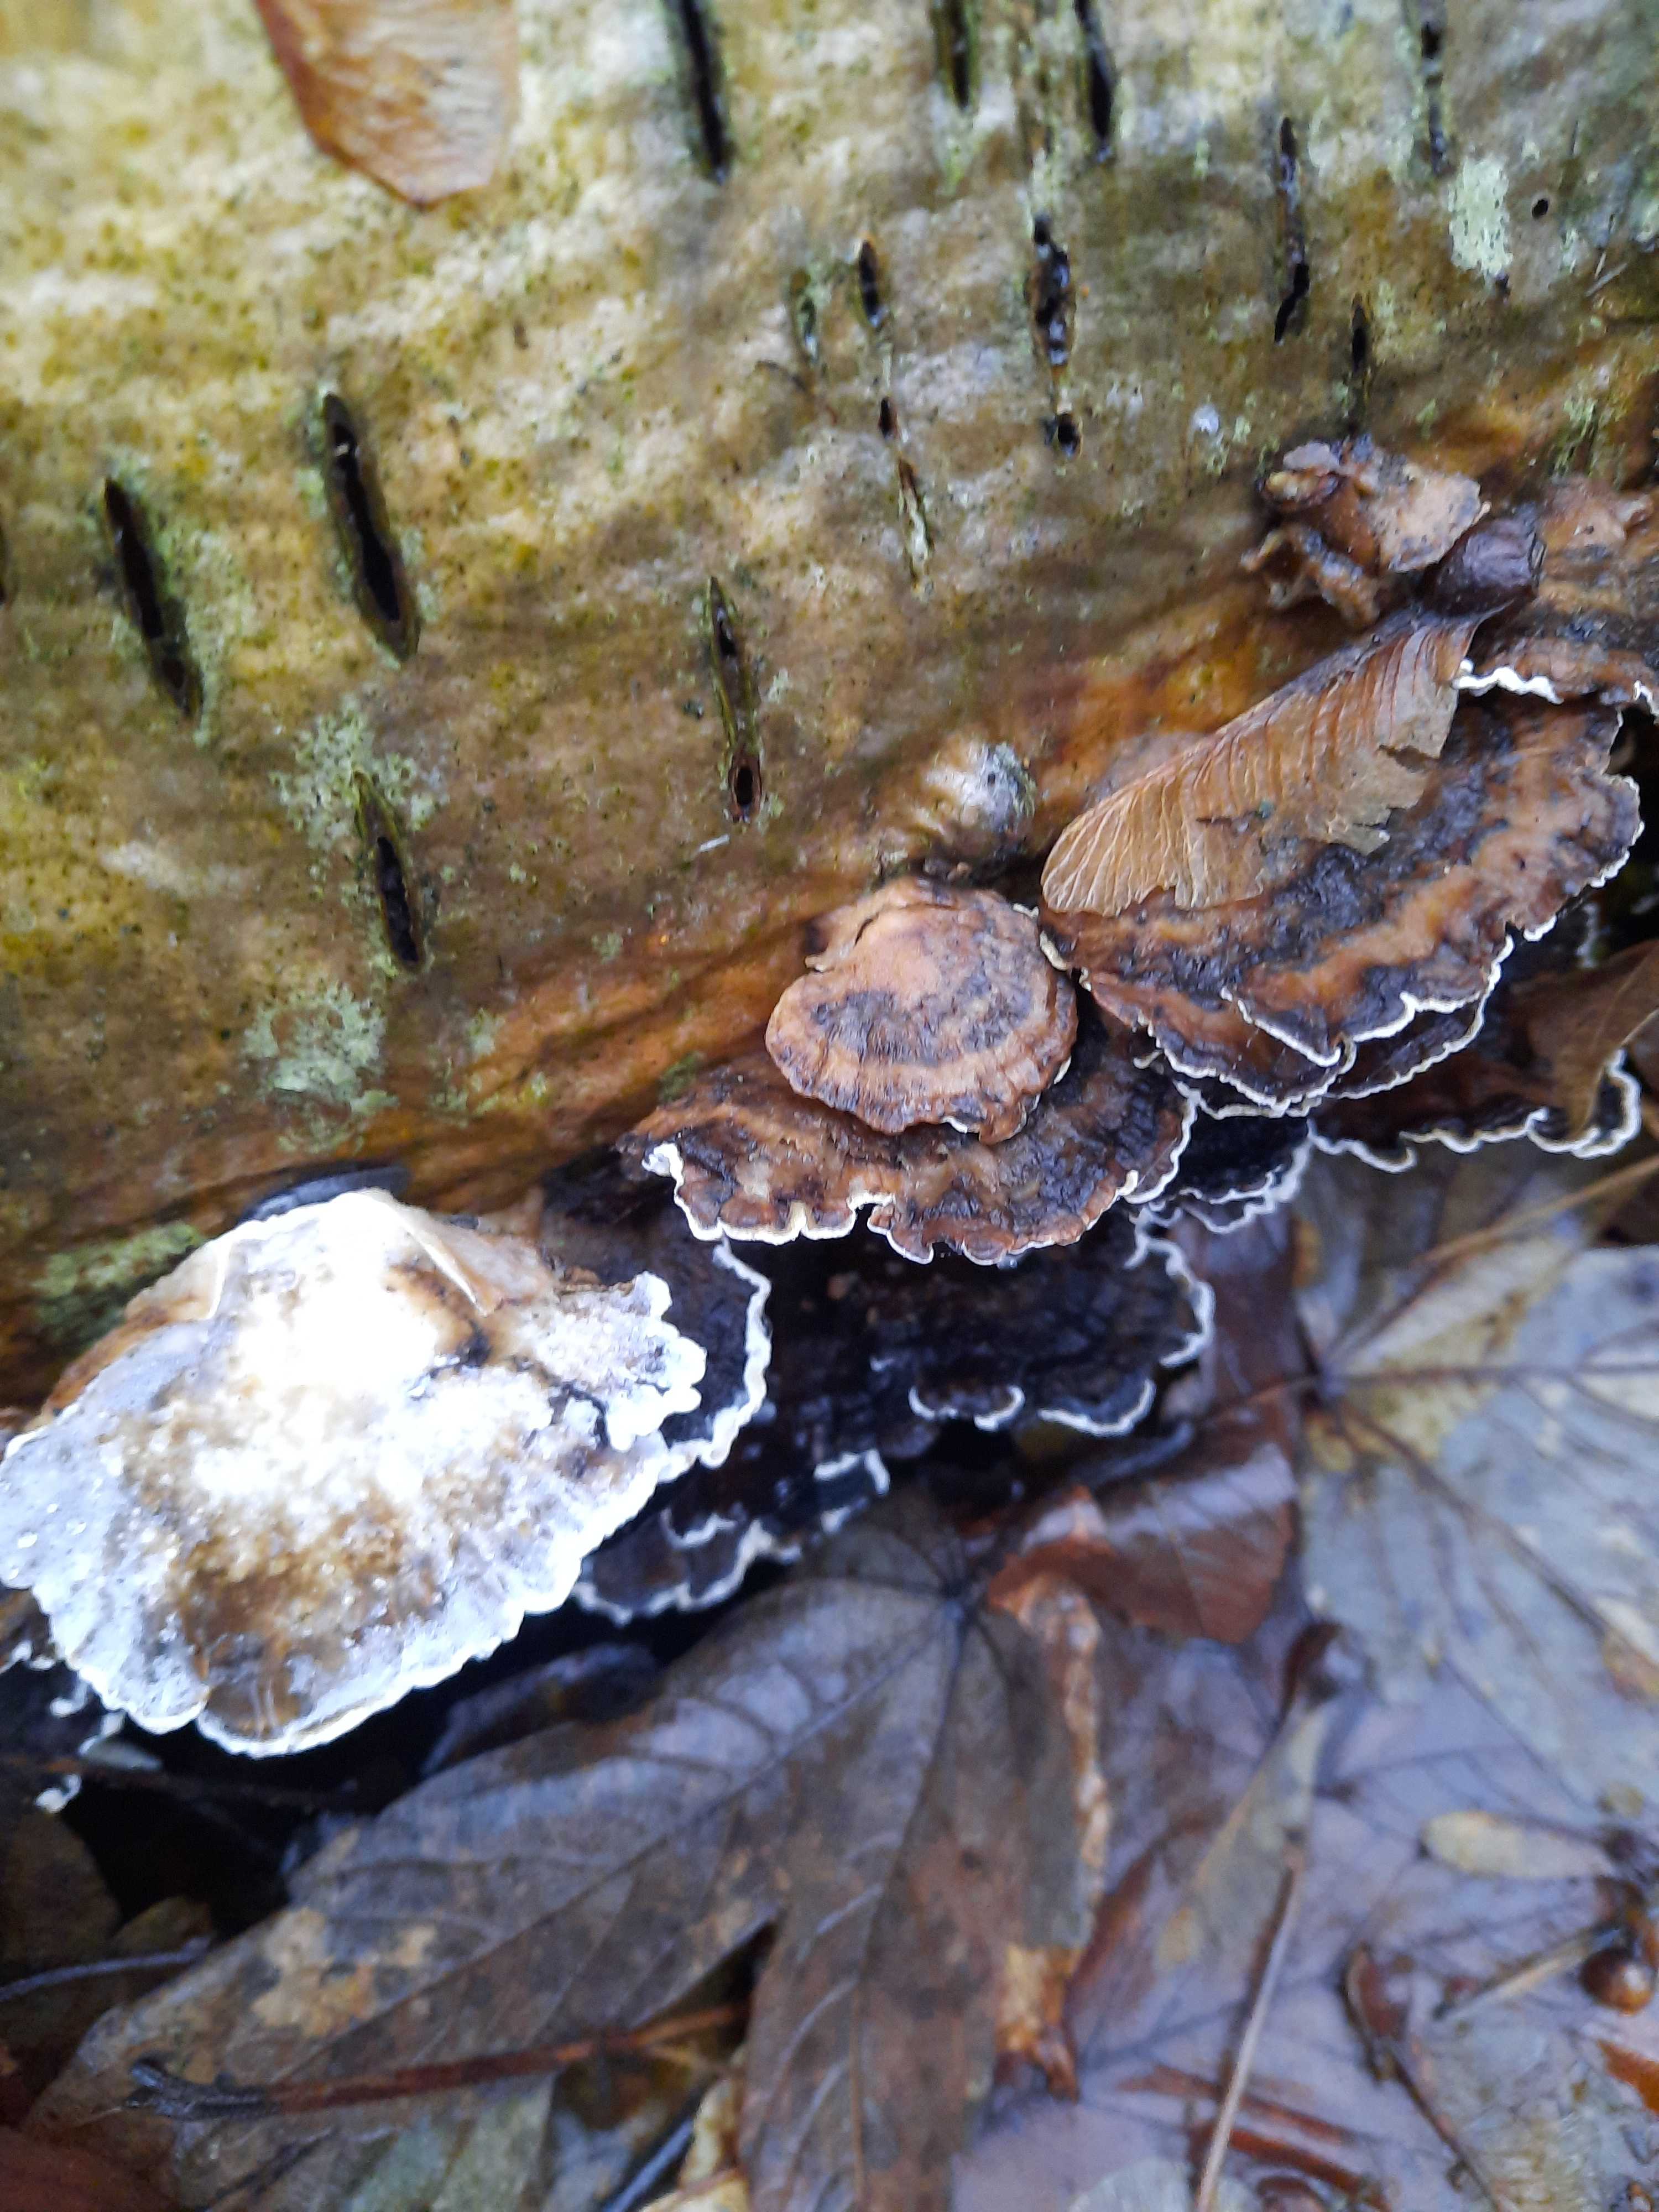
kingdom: Fungi
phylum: Basidiomycota
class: Agaricomycetes
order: Polyporales
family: Phanerochaetaceae
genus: Bjerkandera
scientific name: Bjerkandera adusta
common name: sveden sodporesvamp
